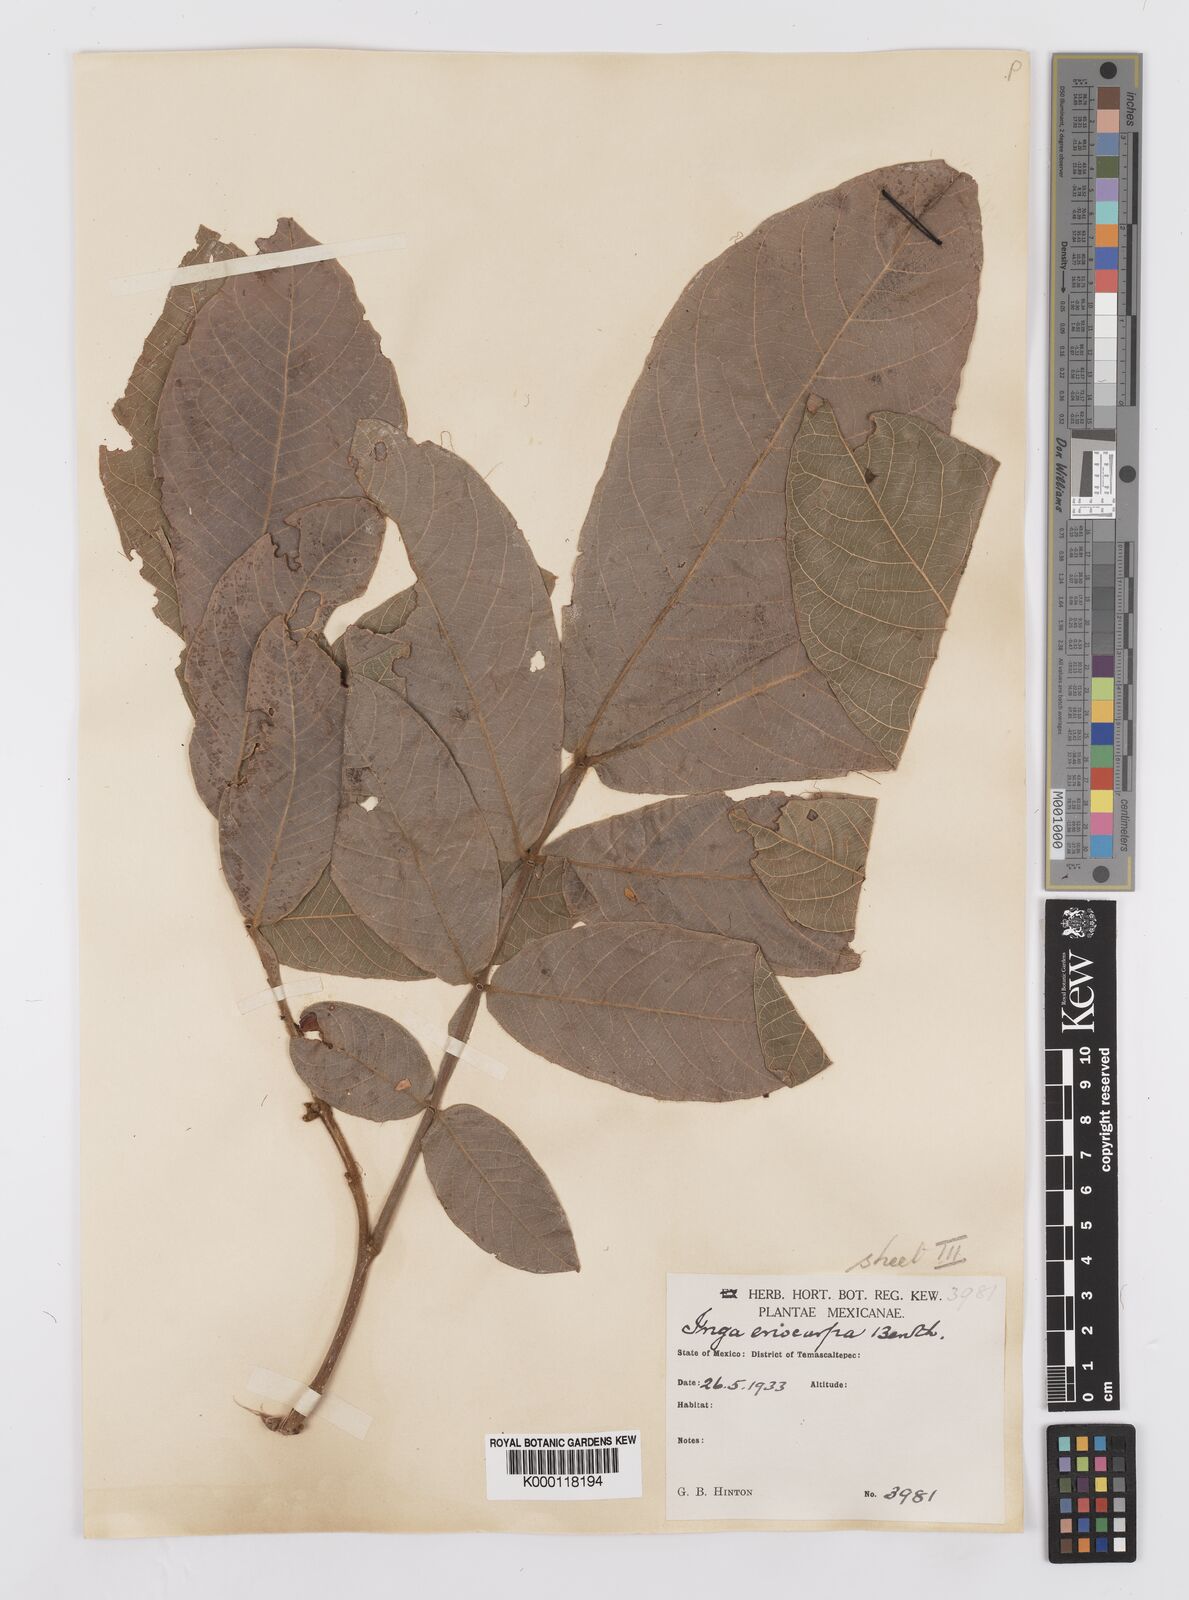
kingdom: Plantae
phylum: Tracheophyta
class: Magnoliopsida
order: Fabales
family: Fabaceae
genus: Inga
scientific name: Inga vera
